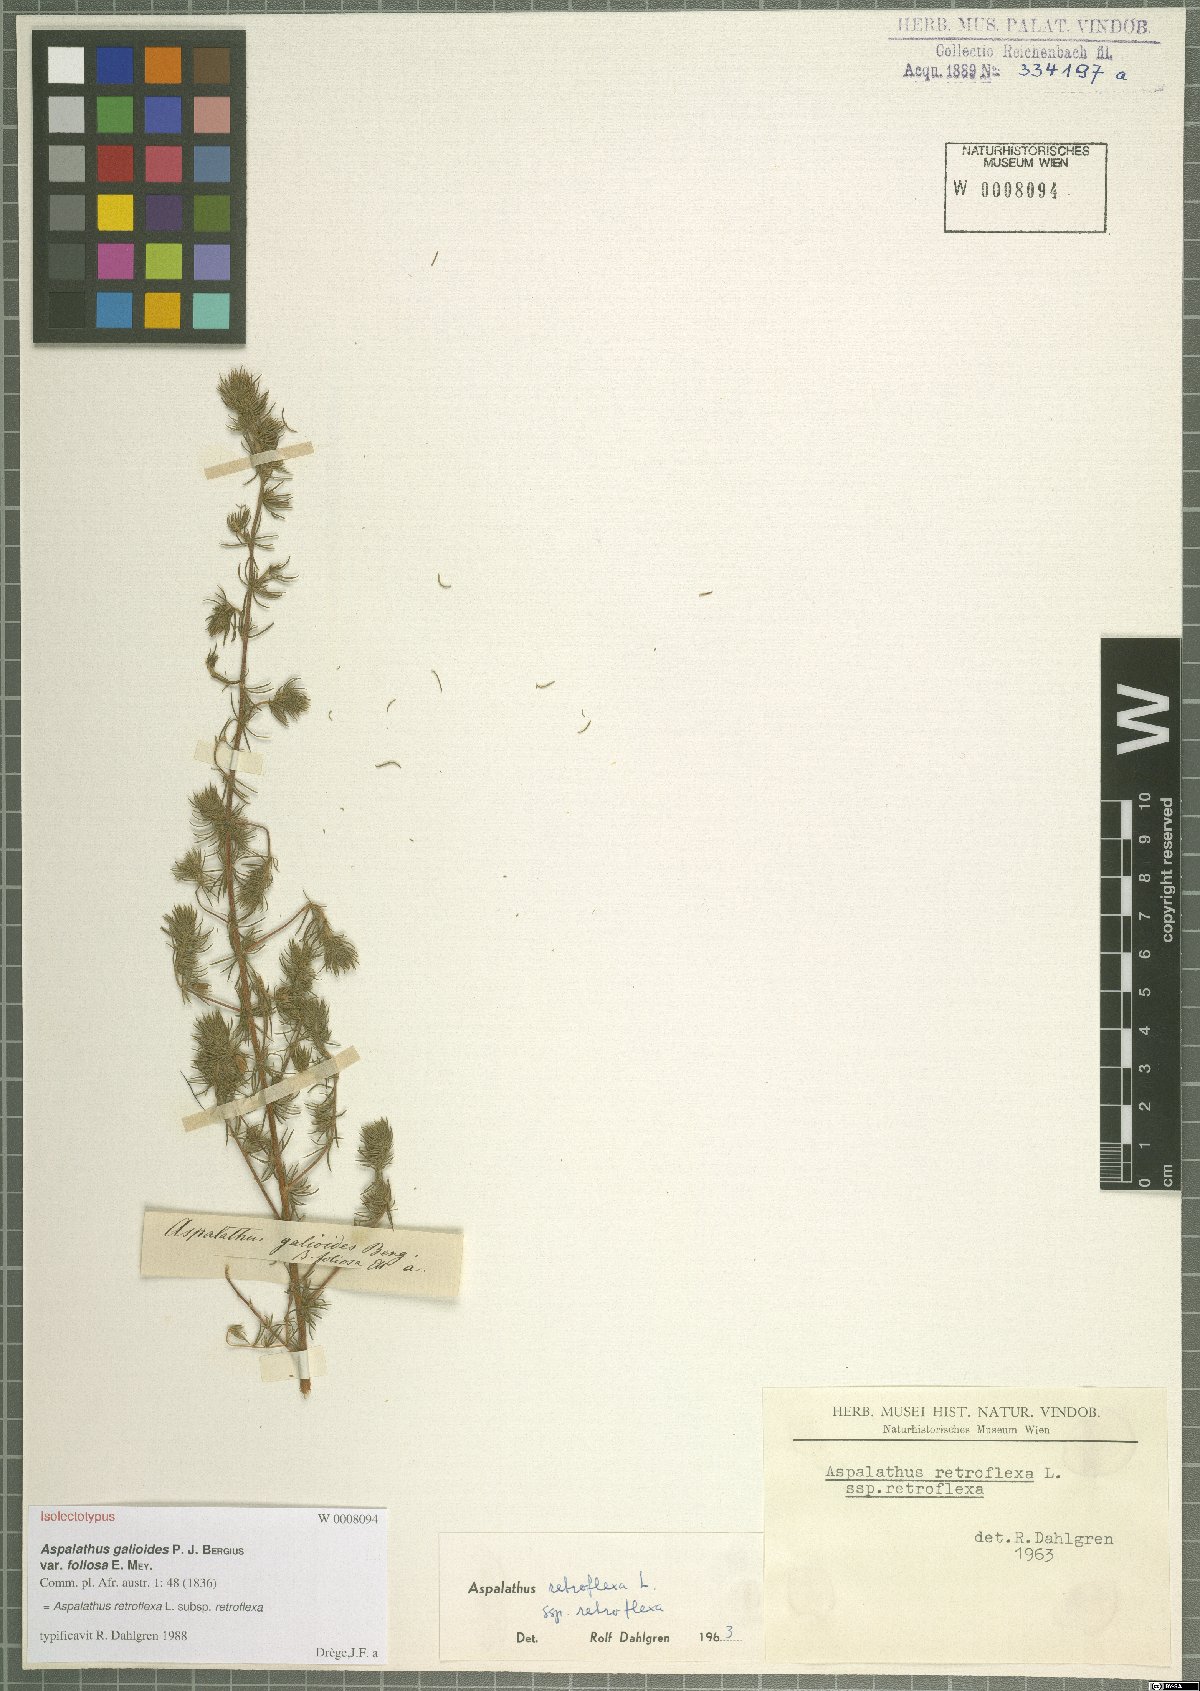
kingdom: Plantae
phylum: Tracheophyta
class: Magnoliopsida
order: Fabales
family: Fabaceae
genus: Aspalathus
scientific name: Aspalathus retroflexa
